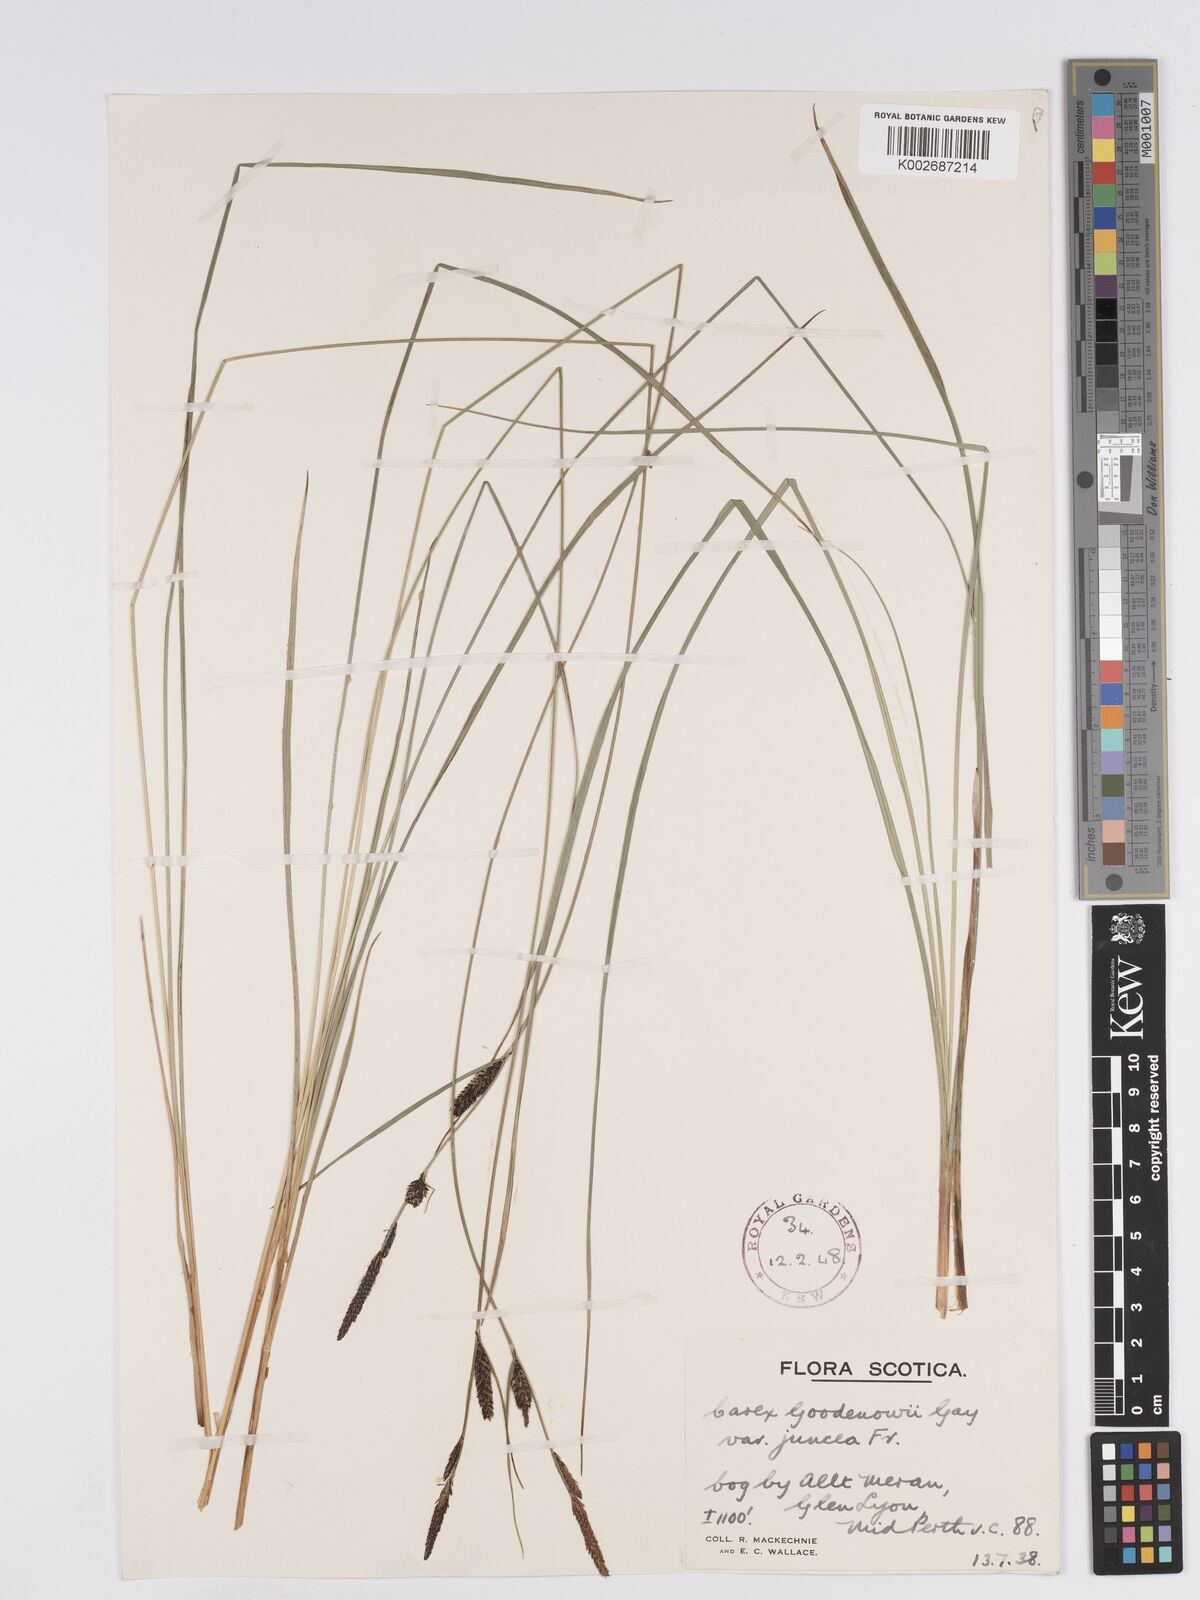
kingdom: Plantae
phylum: Tracheophyta
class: Liliopsida
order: Poales
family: Cyperaceae
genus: Carex
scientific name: Carex nigra
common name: Common sedge
